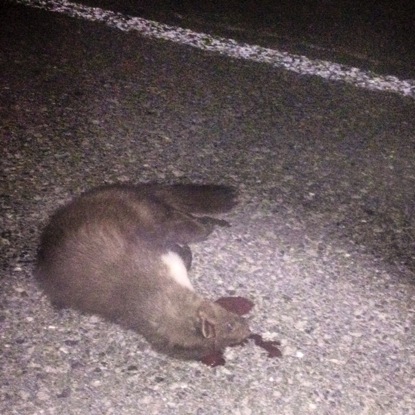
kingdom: Animalia
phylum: Chordata
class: Mammalia
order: Carnivora
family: Mustelidae
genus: Martes
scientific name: Martes foina
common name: Beech marten
